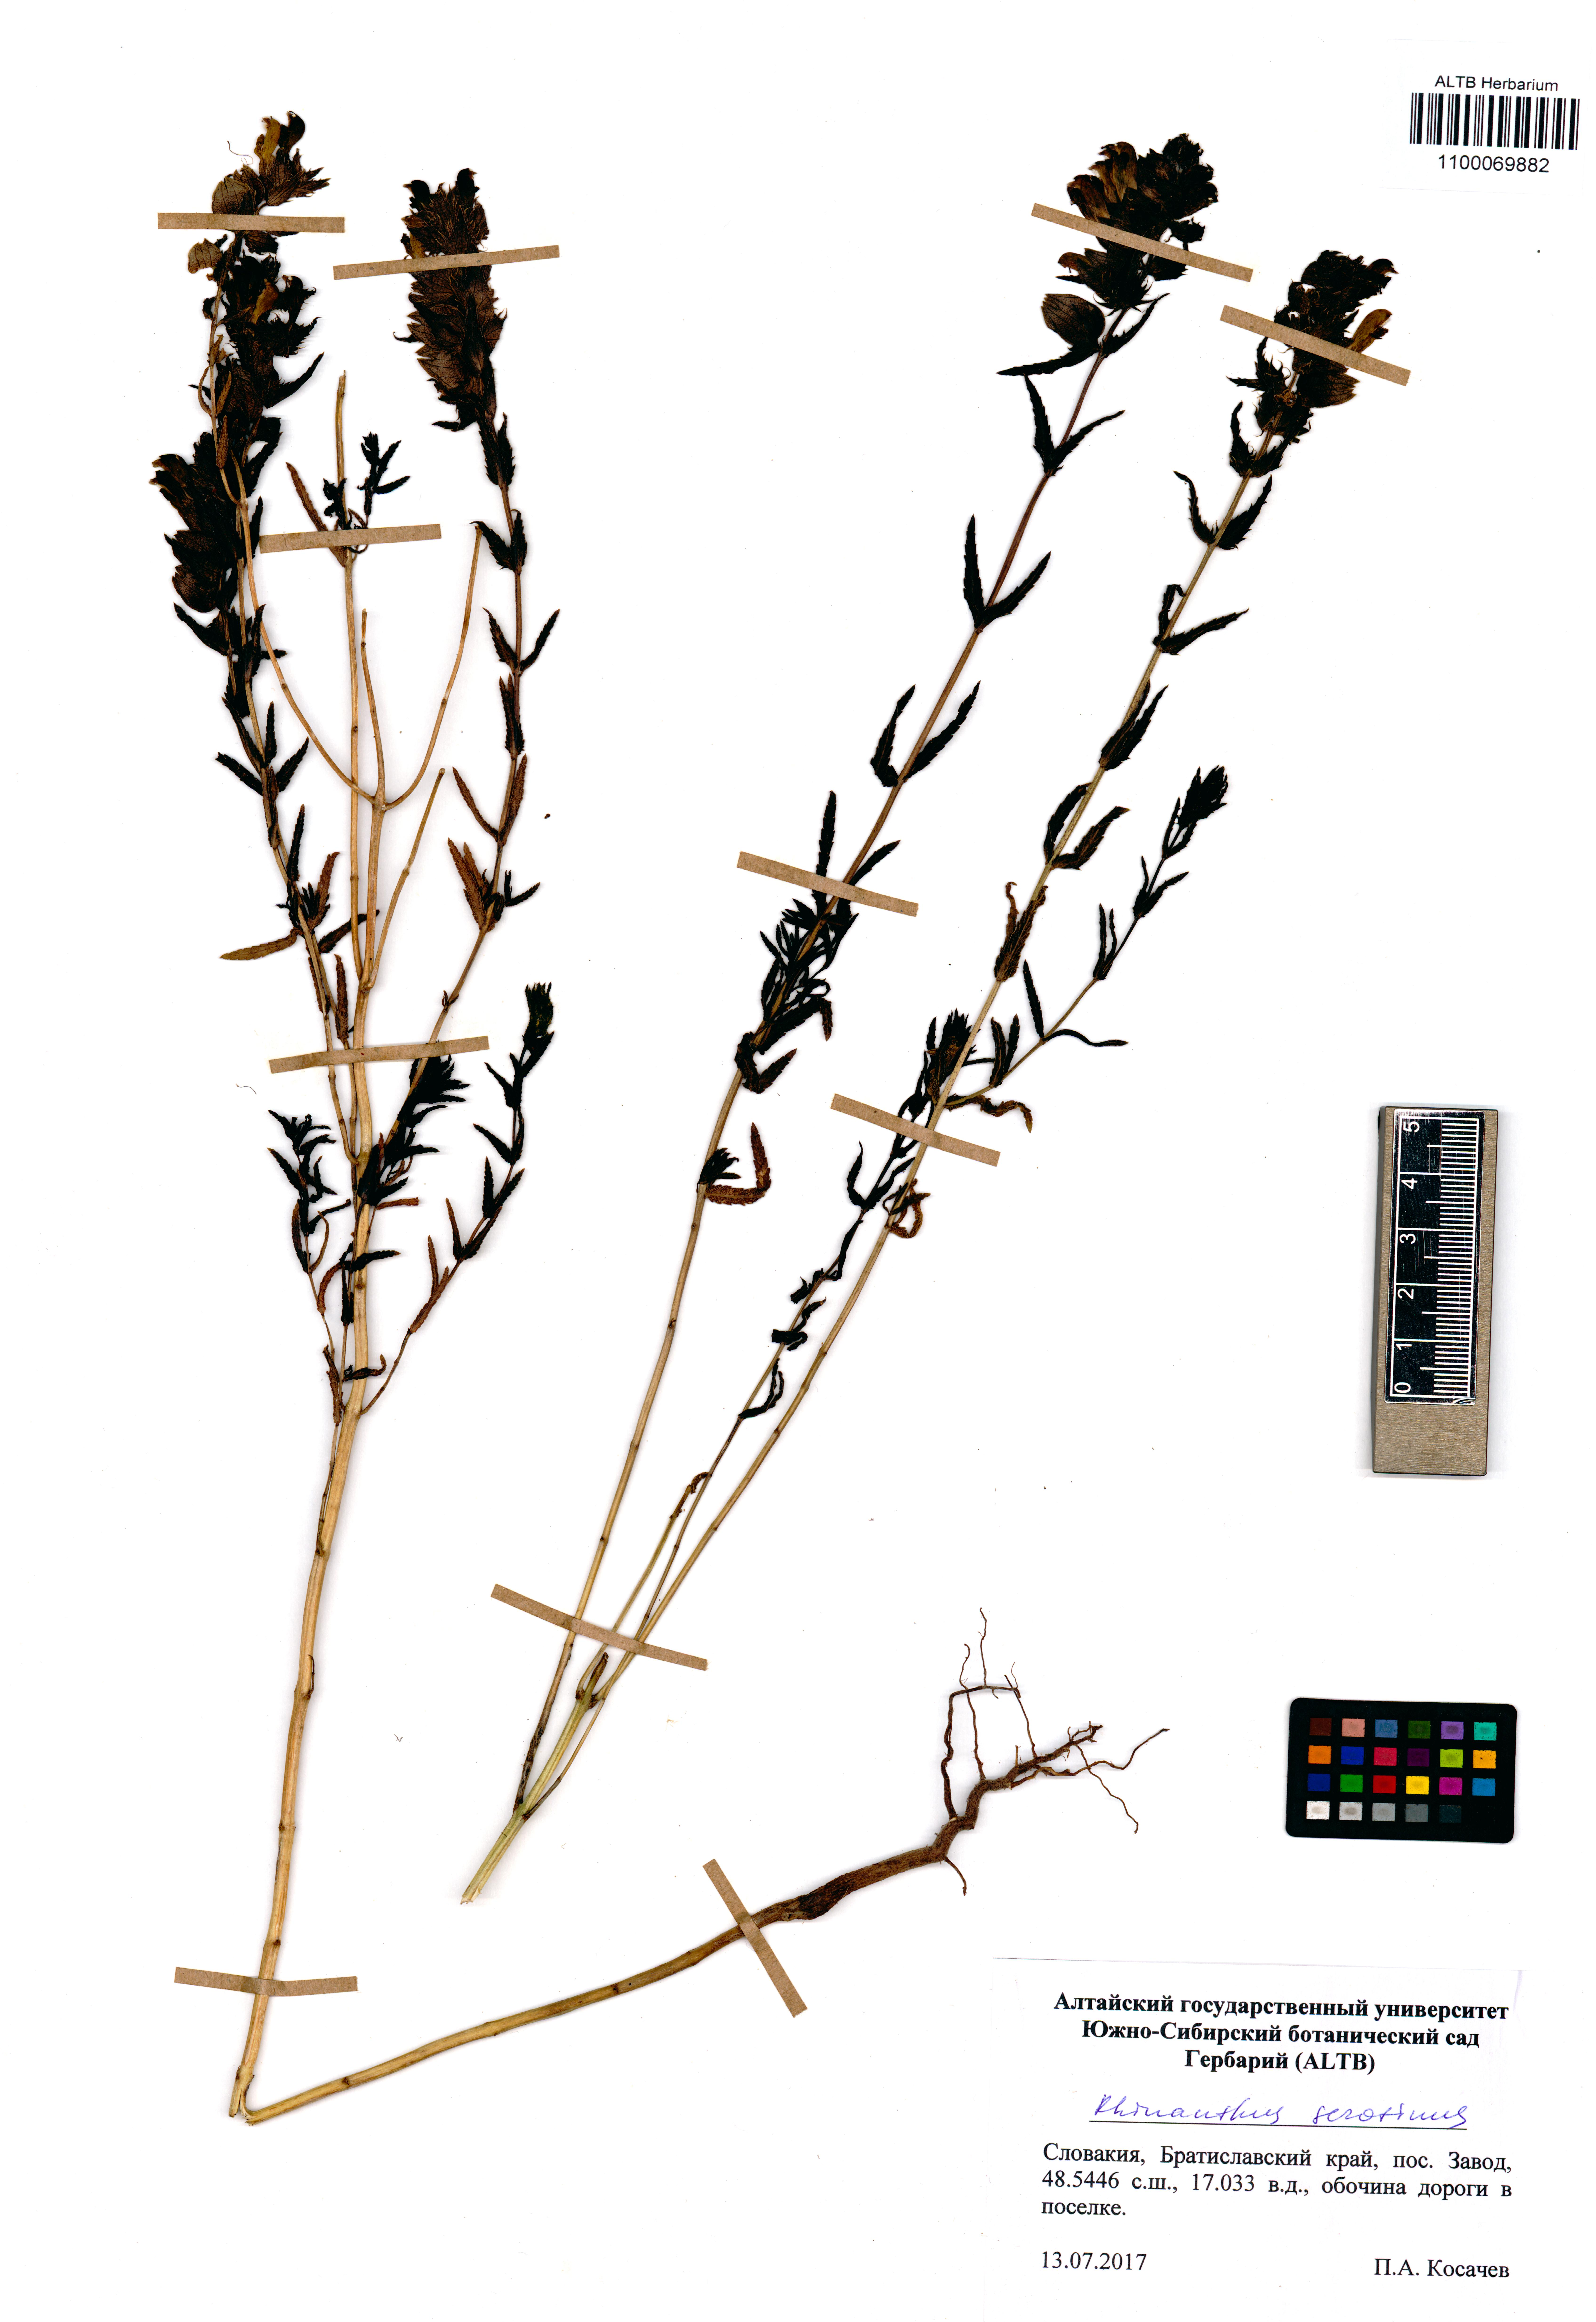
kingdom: Plantae
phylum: Tracheophyta
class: Magnoliopsida
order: Lamiales
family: Orobanchaceae
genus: Rhinanthus
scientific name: Rhinanthus serotinus
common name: Late-flowering yellow rattle
